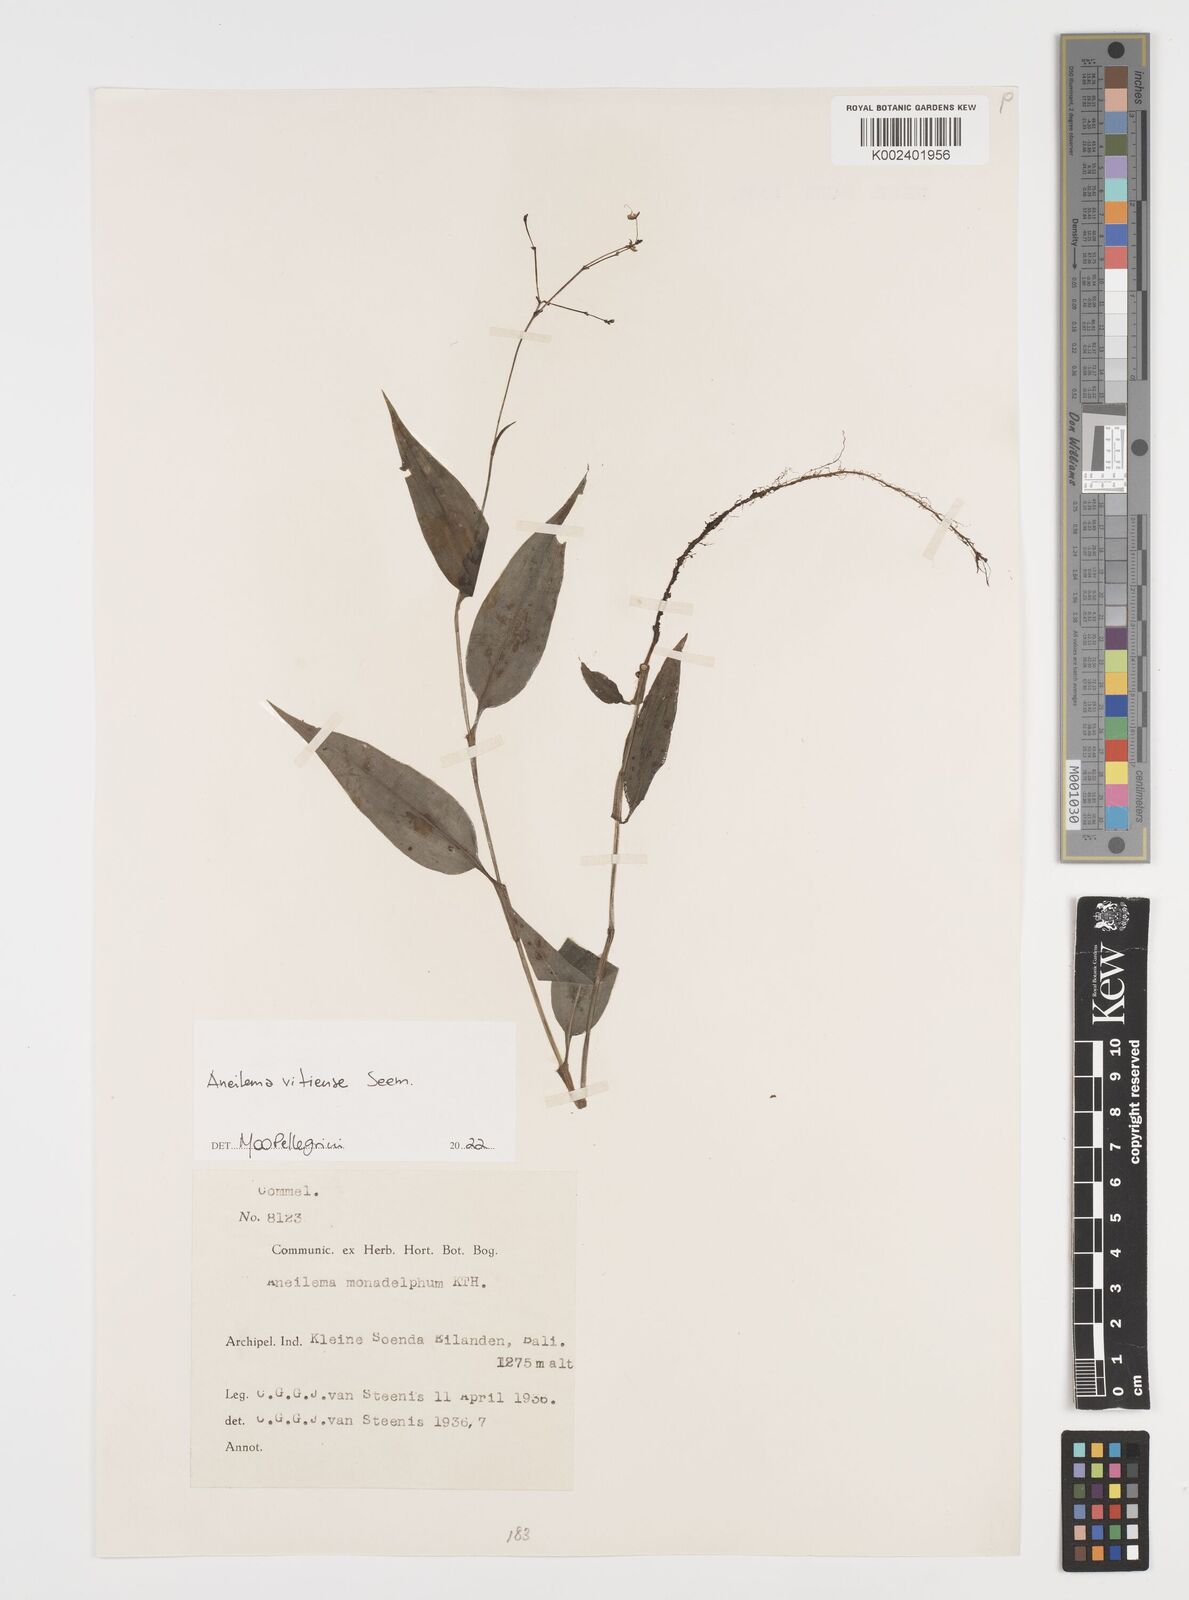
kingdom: Plantae
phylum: Tracheophyta
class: Liliopsida
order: Commelinales
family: Commelinaceae
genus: Rhopalephora
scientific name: Rhopalephora vitiensis
